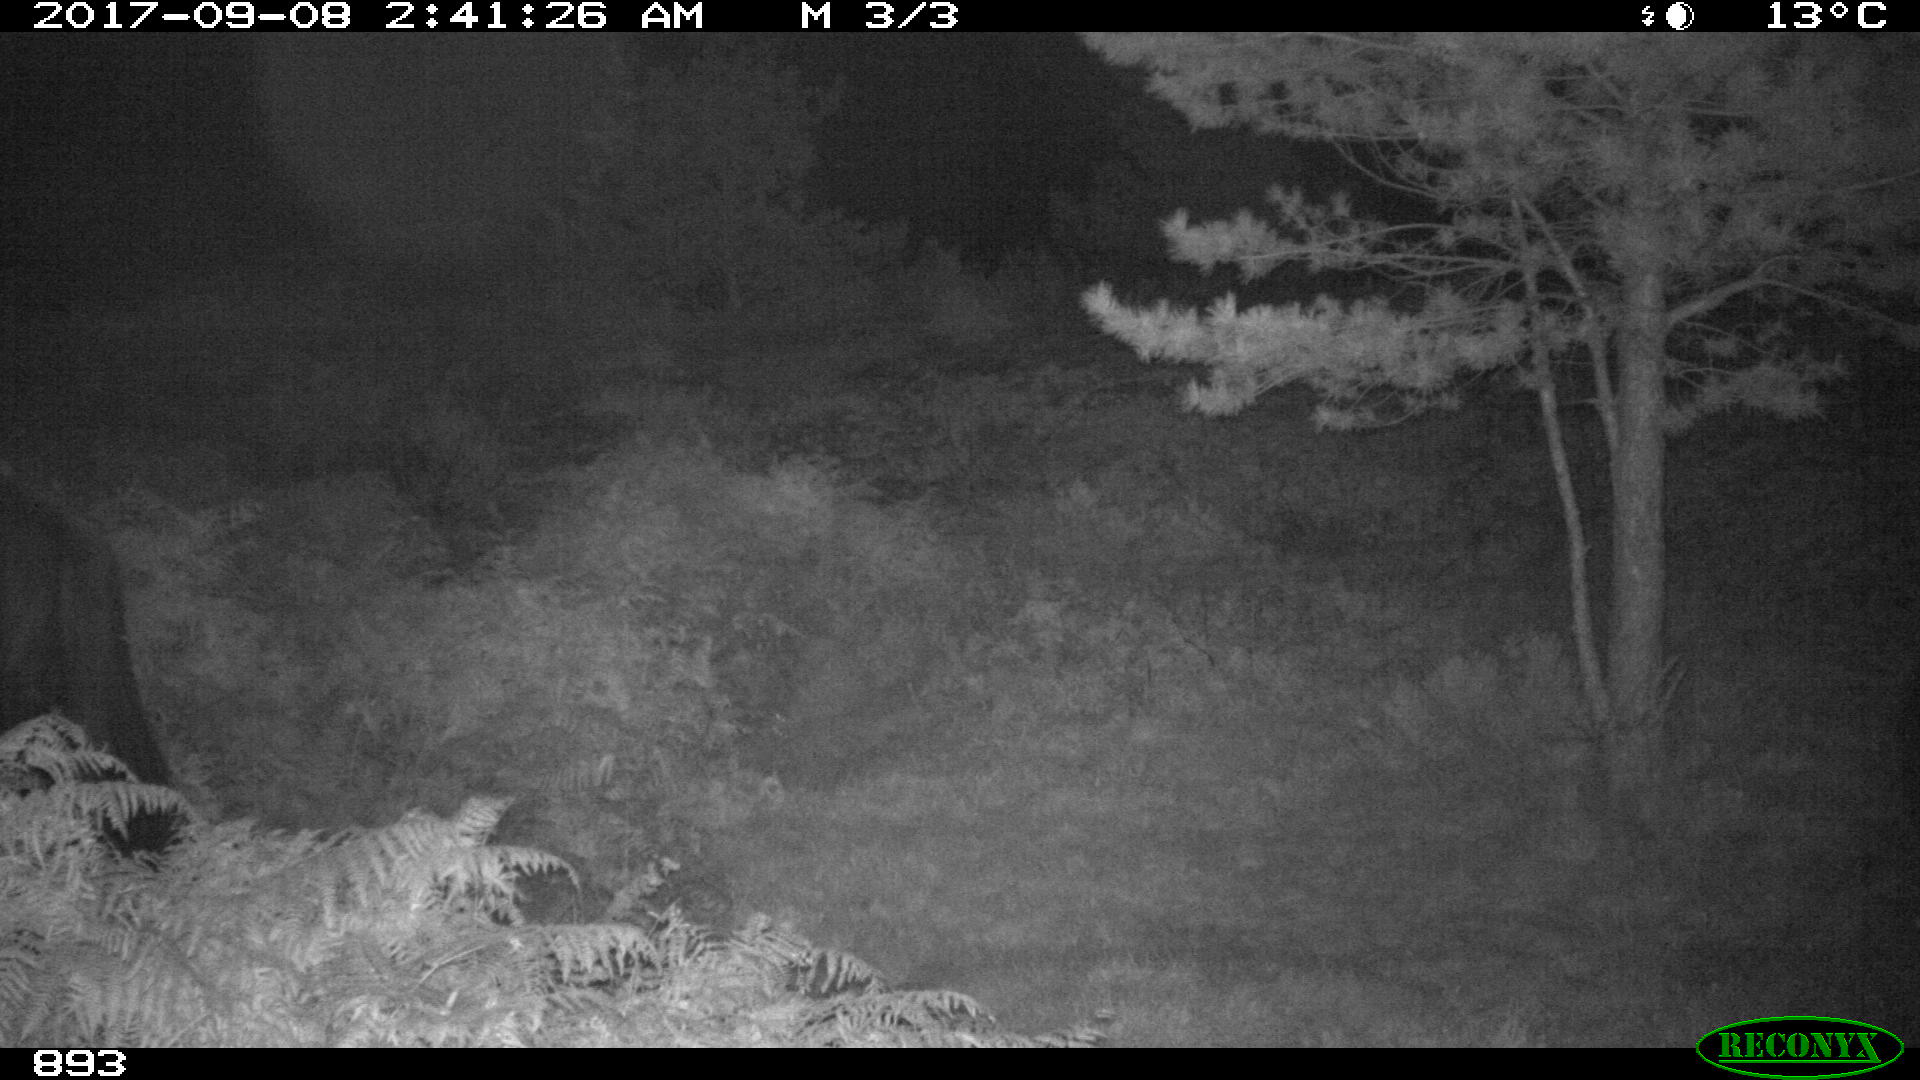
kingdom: Animalia
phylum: Chordata
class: Mammalia
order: Perissodactyla
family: Equidae
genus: Equus
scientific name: Equus caballus
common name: Horse
